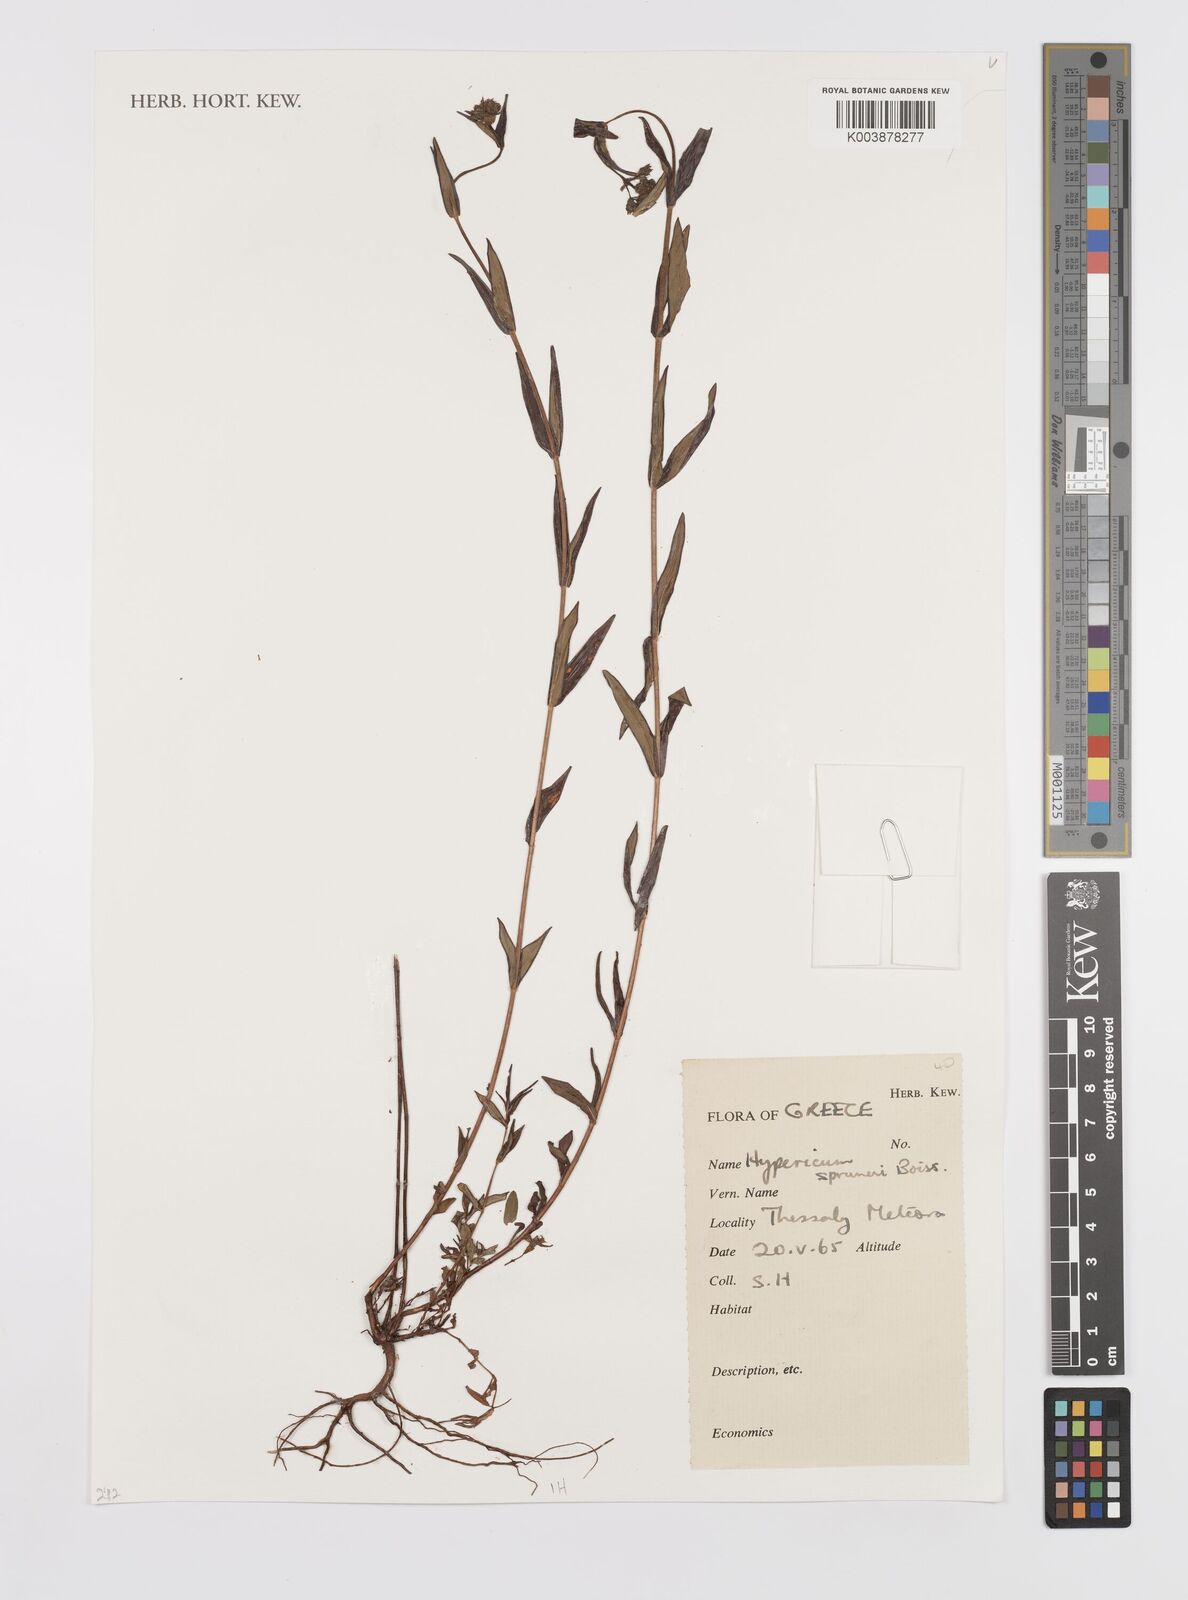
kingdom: Plantae
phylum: Tracheophyta
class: Magnoliopsida
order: Malpighiales
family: Hypericaceae
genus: Hypericum
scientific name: Hypericum spruneri
